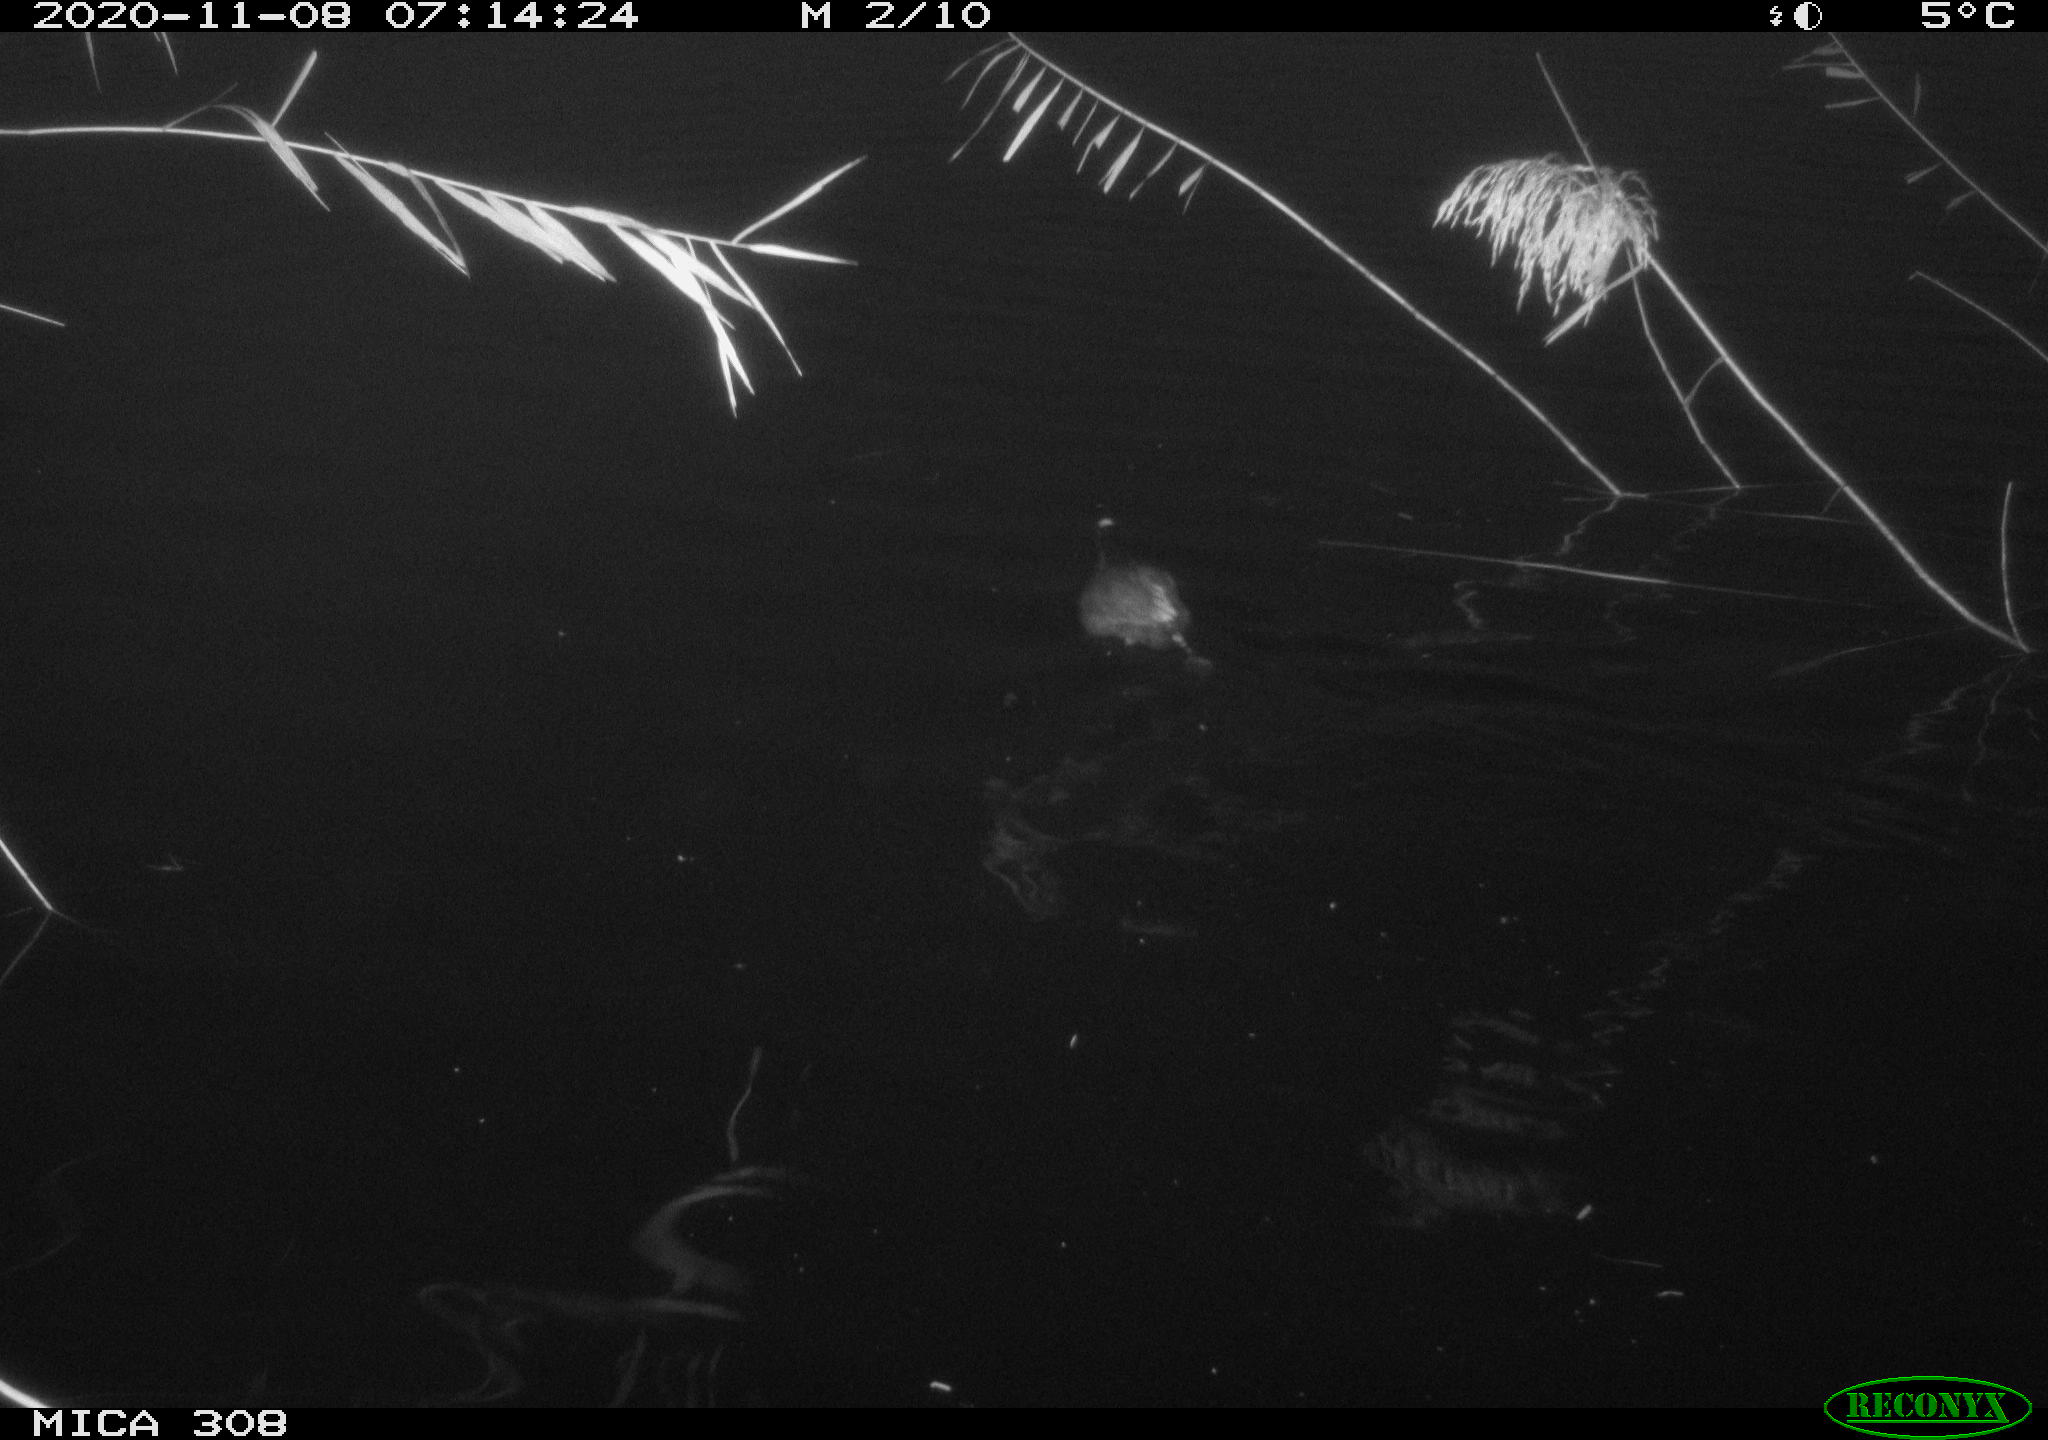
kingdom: Animalia
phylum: Chordata
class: Aves
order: Gruiformes
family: Rallidae
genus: Fulica
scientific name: Fulica atra
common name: Eurasian coot
